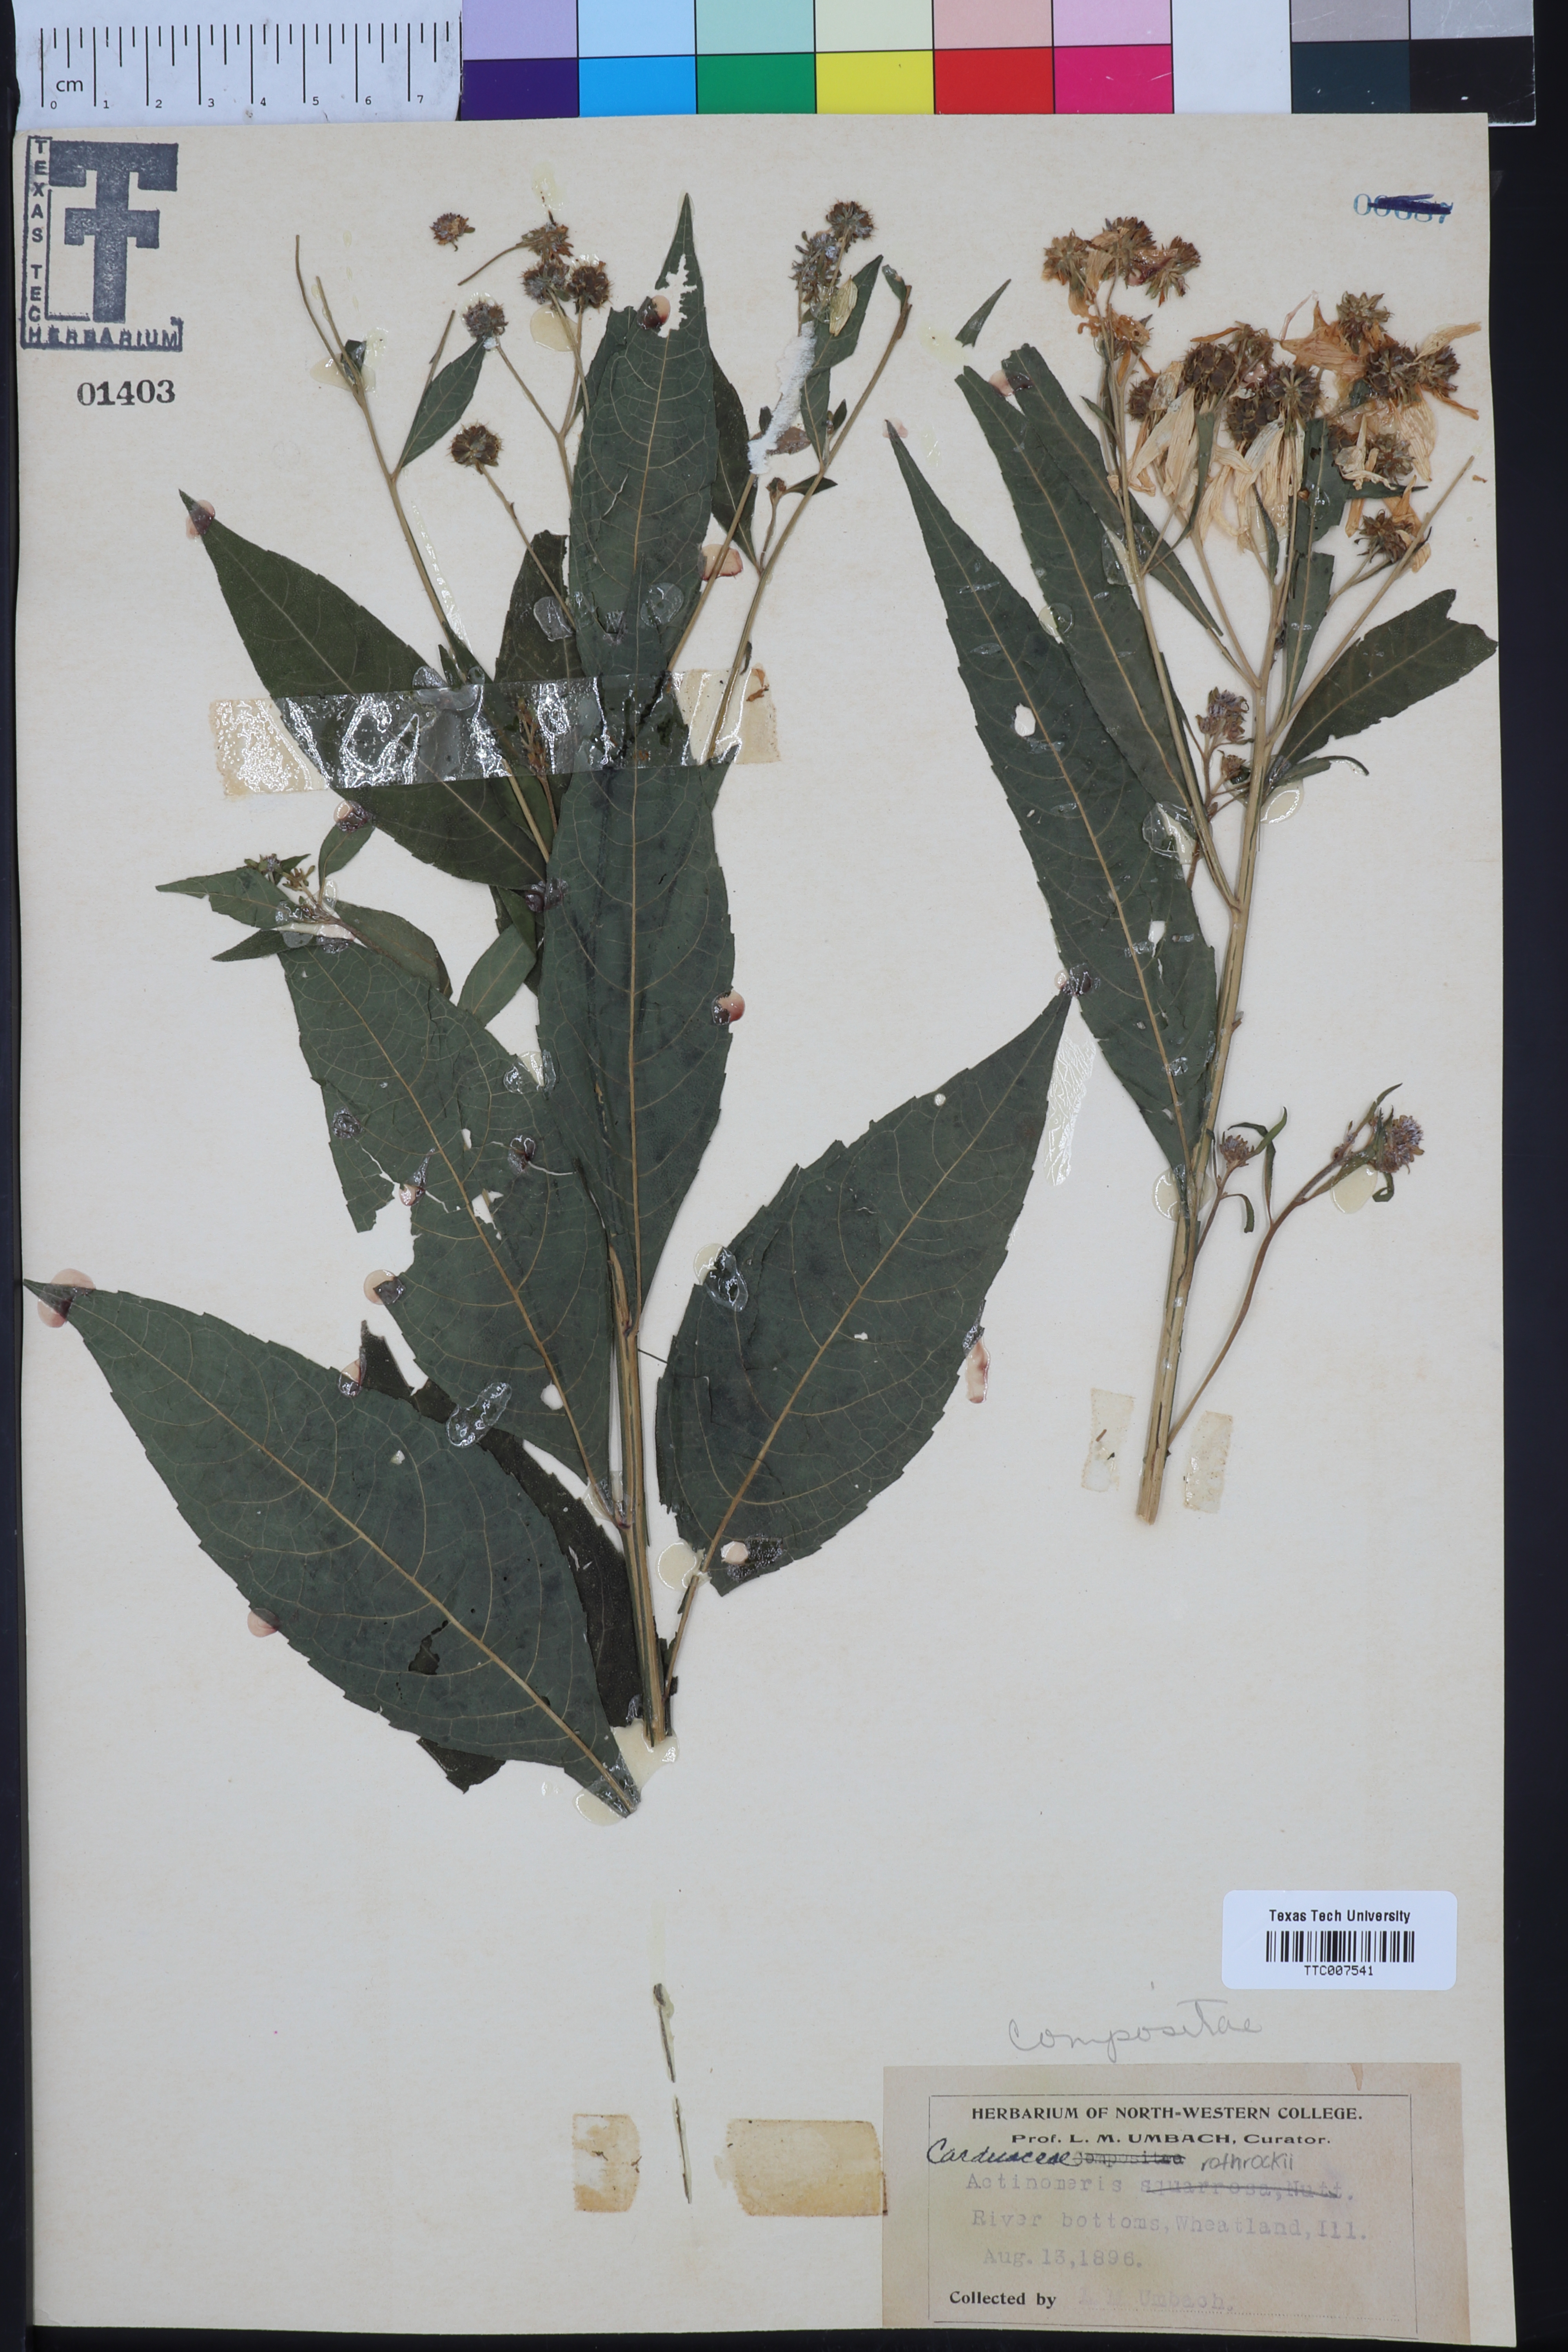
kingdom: Plantae
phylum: Tracheophyta
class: Magnoliopsida
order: Asterales
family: Asteraceae
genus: Verbesina
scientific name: Verbesina alternifolia
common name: Wingstem
